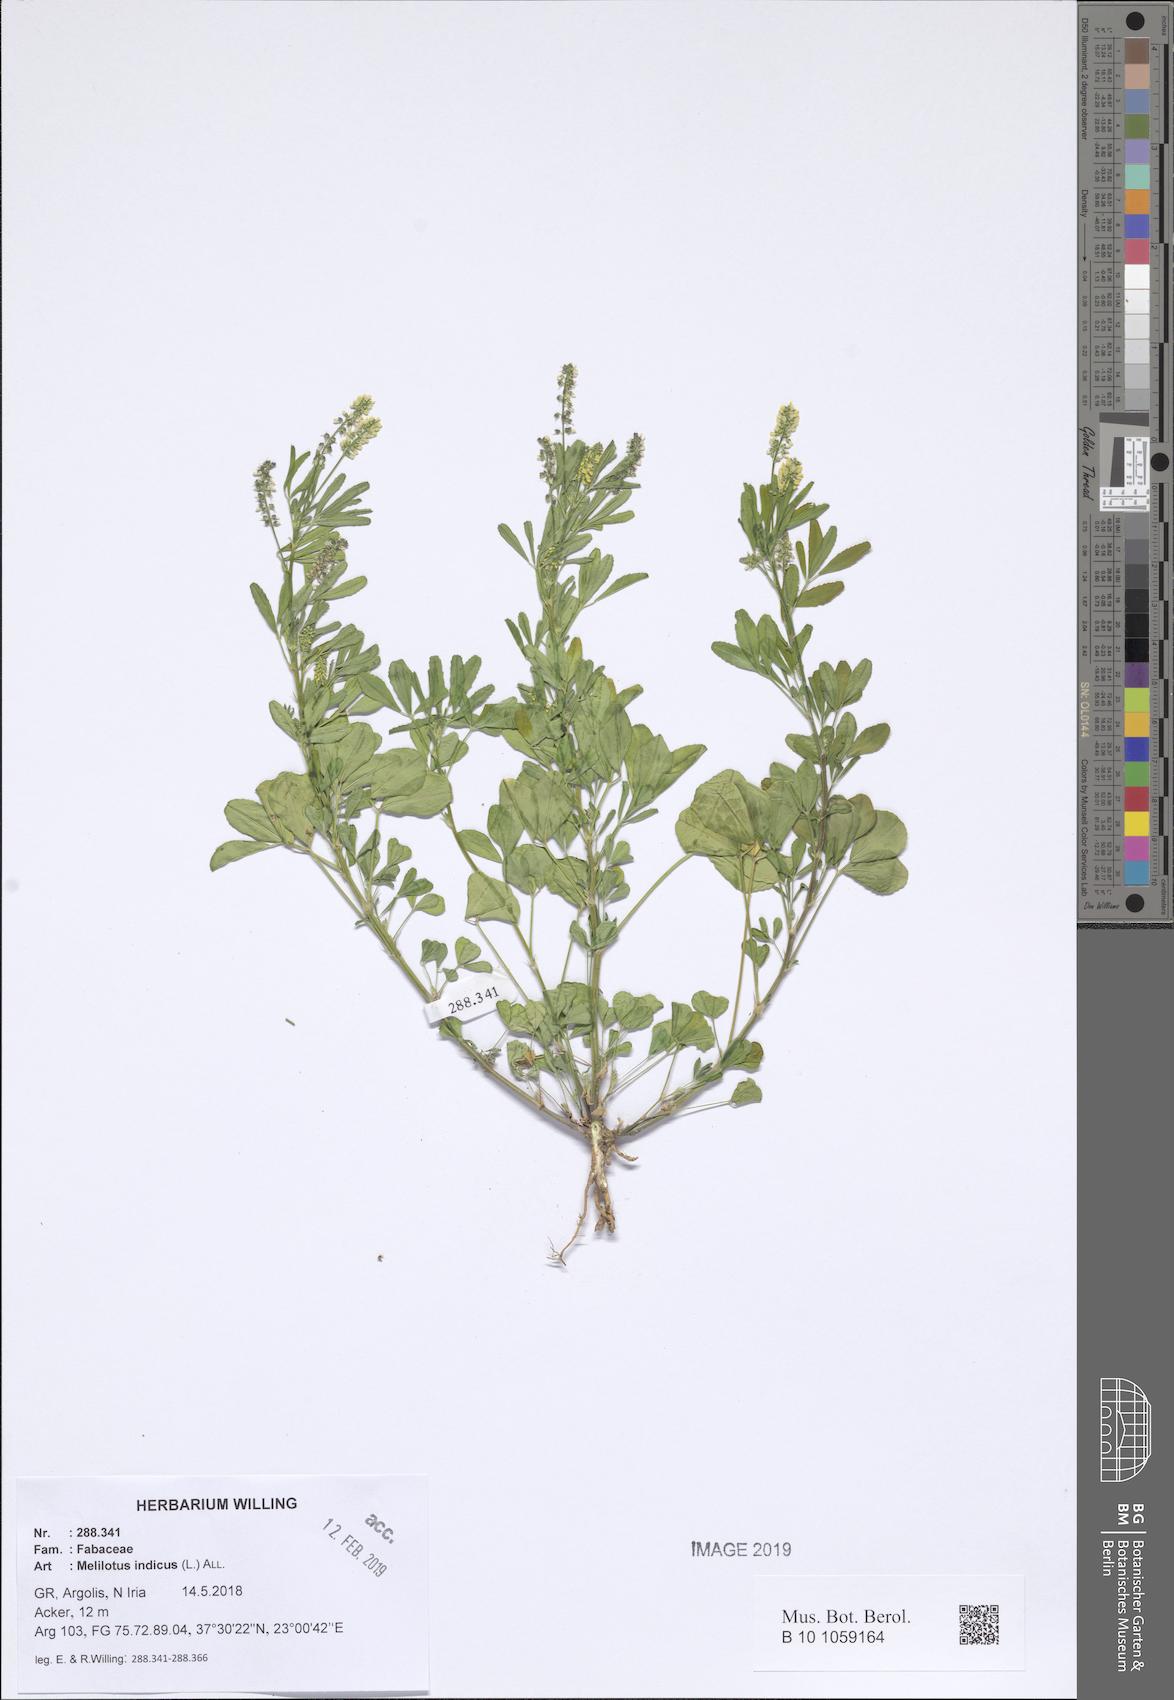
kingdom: Plantae
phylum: Tracheophyta
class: Magnoliopsida
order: Fabales
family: Fabaceae
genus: Melilotus
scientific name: Melilotus indicus
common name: Small melilot
